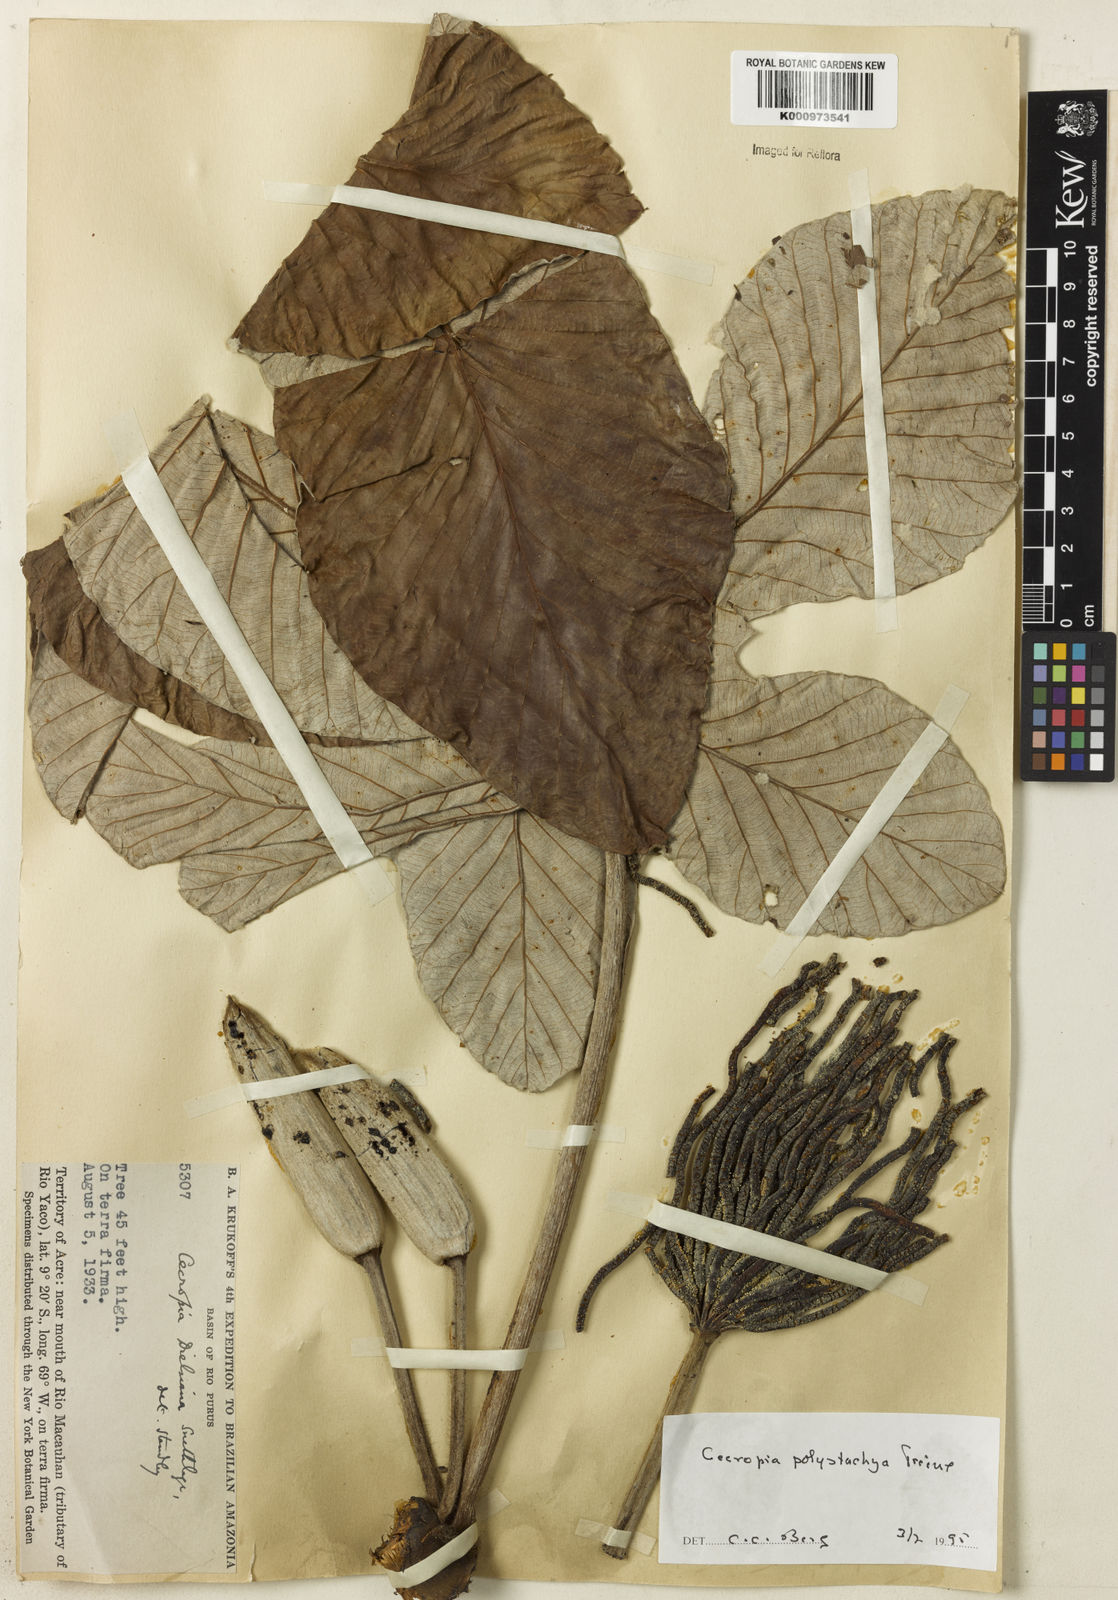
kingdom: Plantae
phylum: Tracheophyta
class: Magnoliopsida
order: Rosales
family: Urticaceae
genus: Cecropia
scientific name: Cecropia
